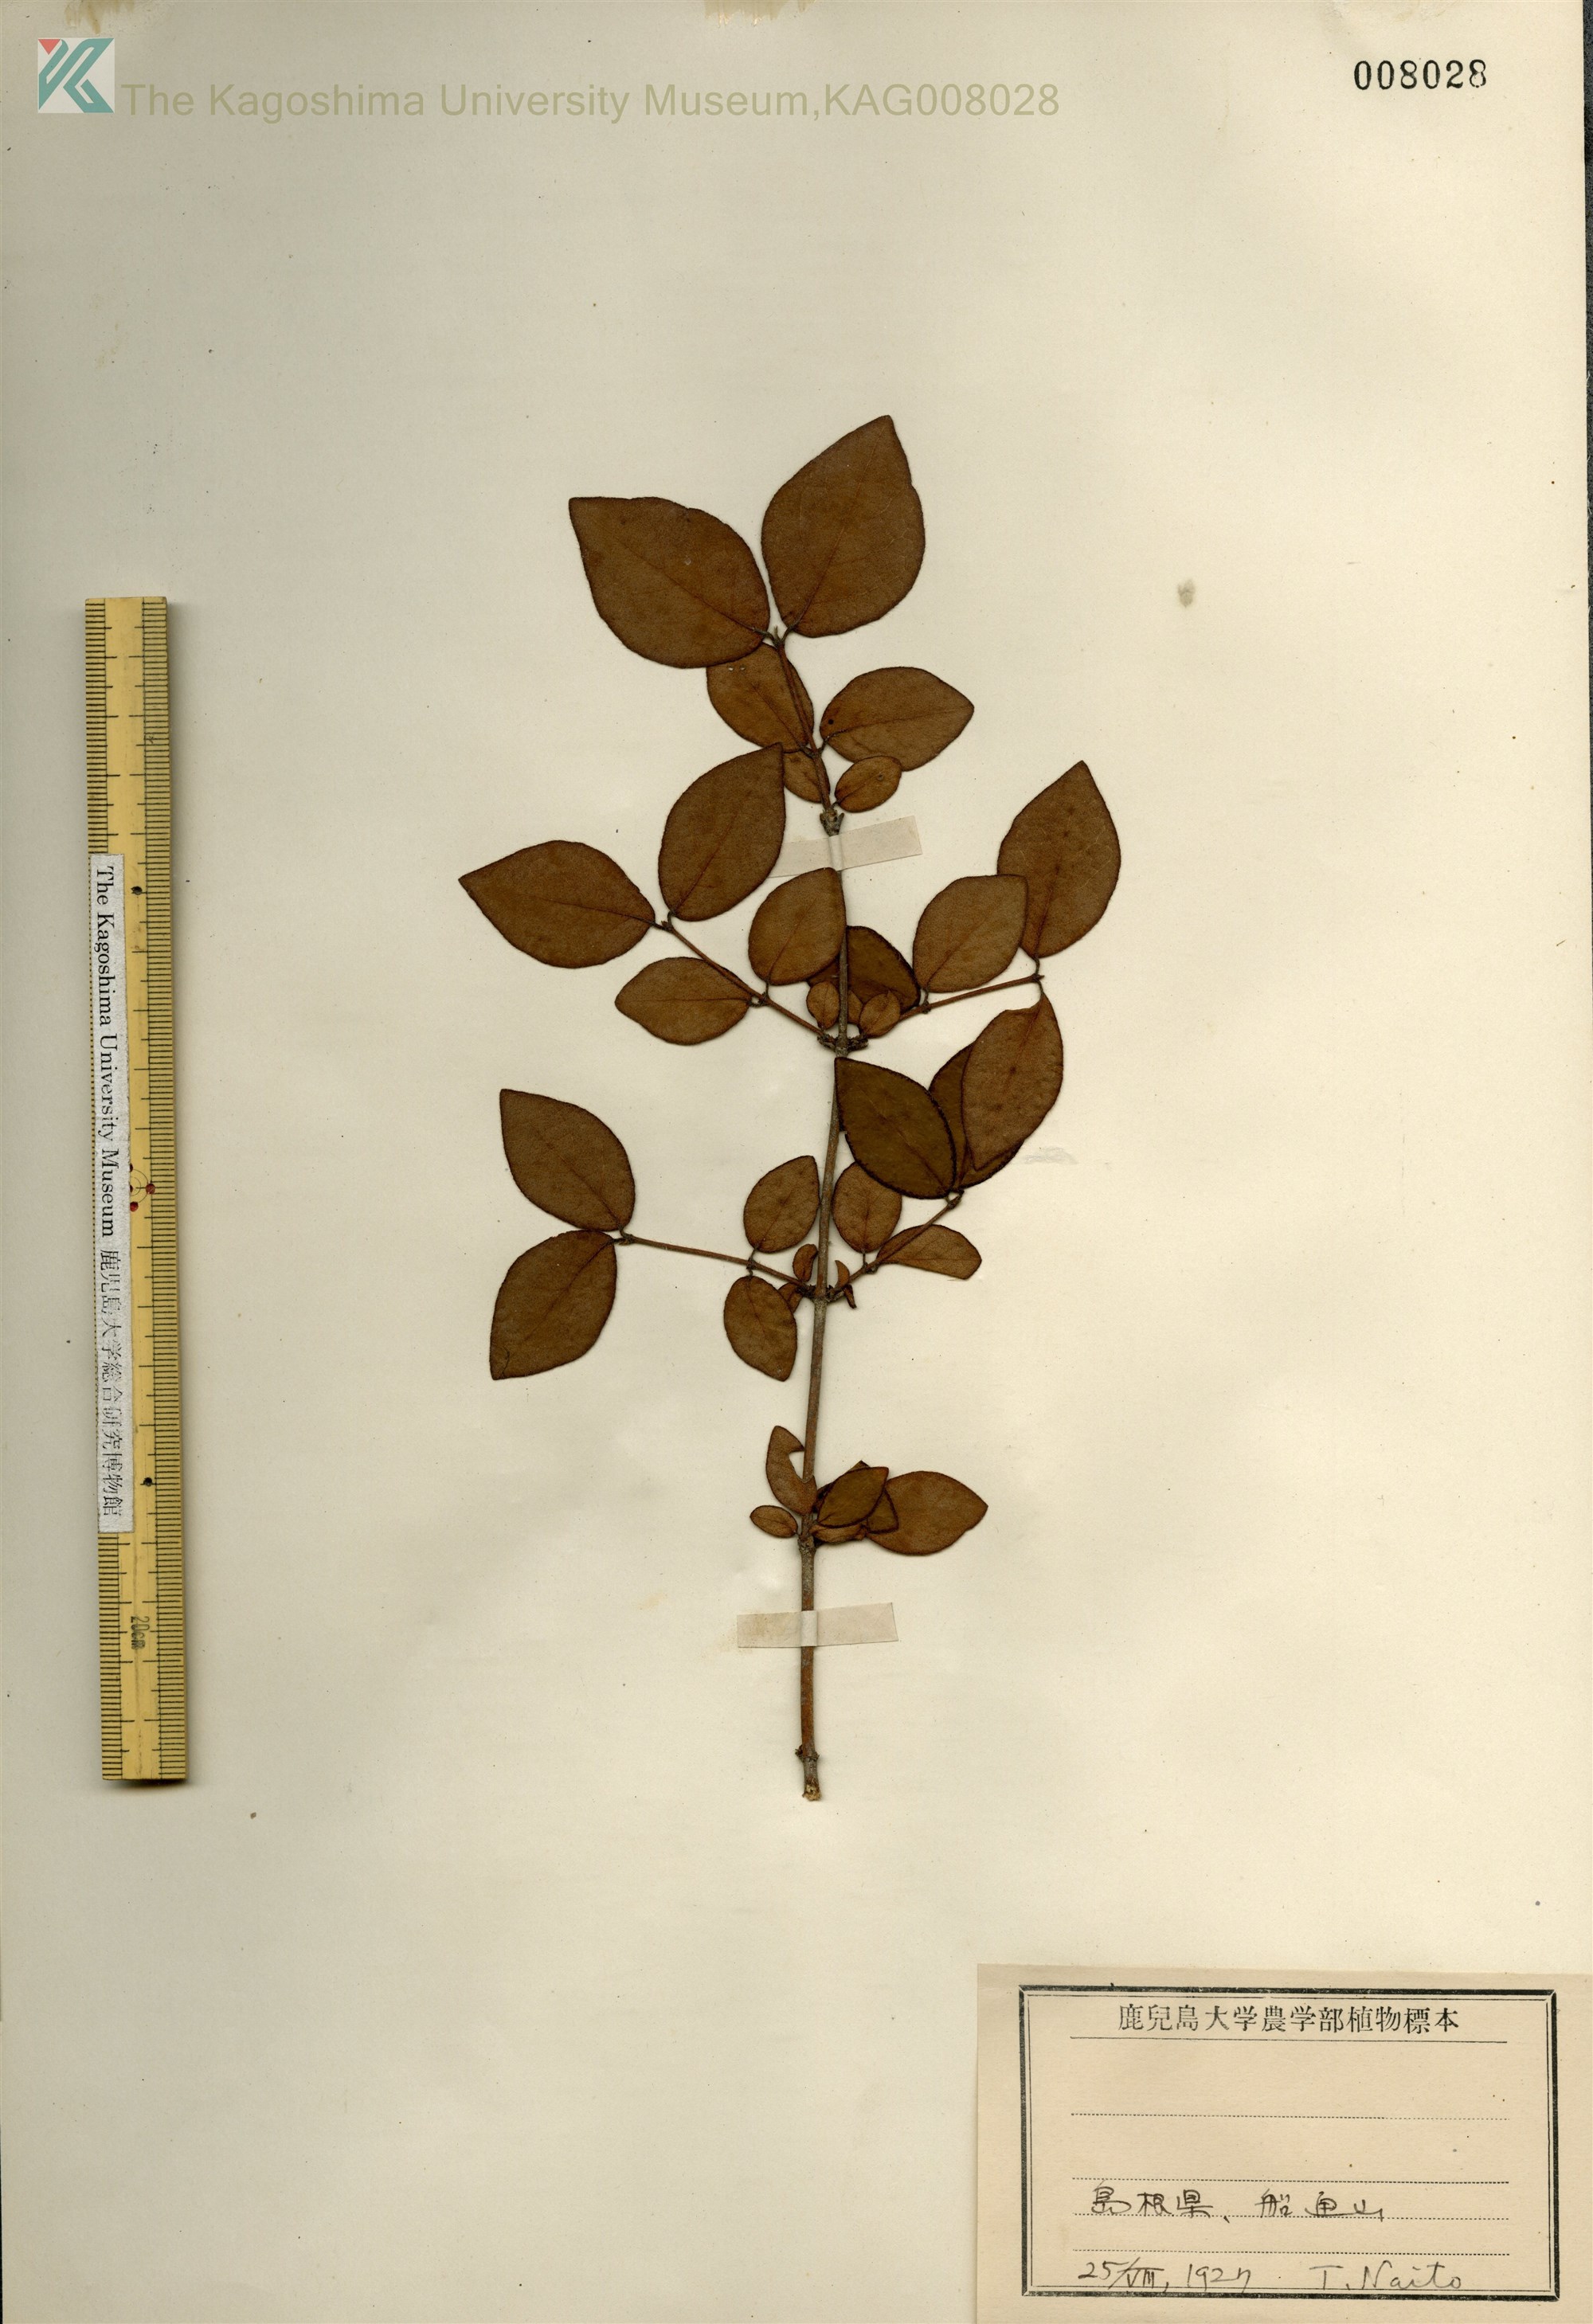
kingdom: Plantae
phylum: Tracheophyta
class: Magnoliopsida
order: Dipsacales
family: Caprifoliaceae
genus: Lonicera
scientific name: Lonicera gracilipes
